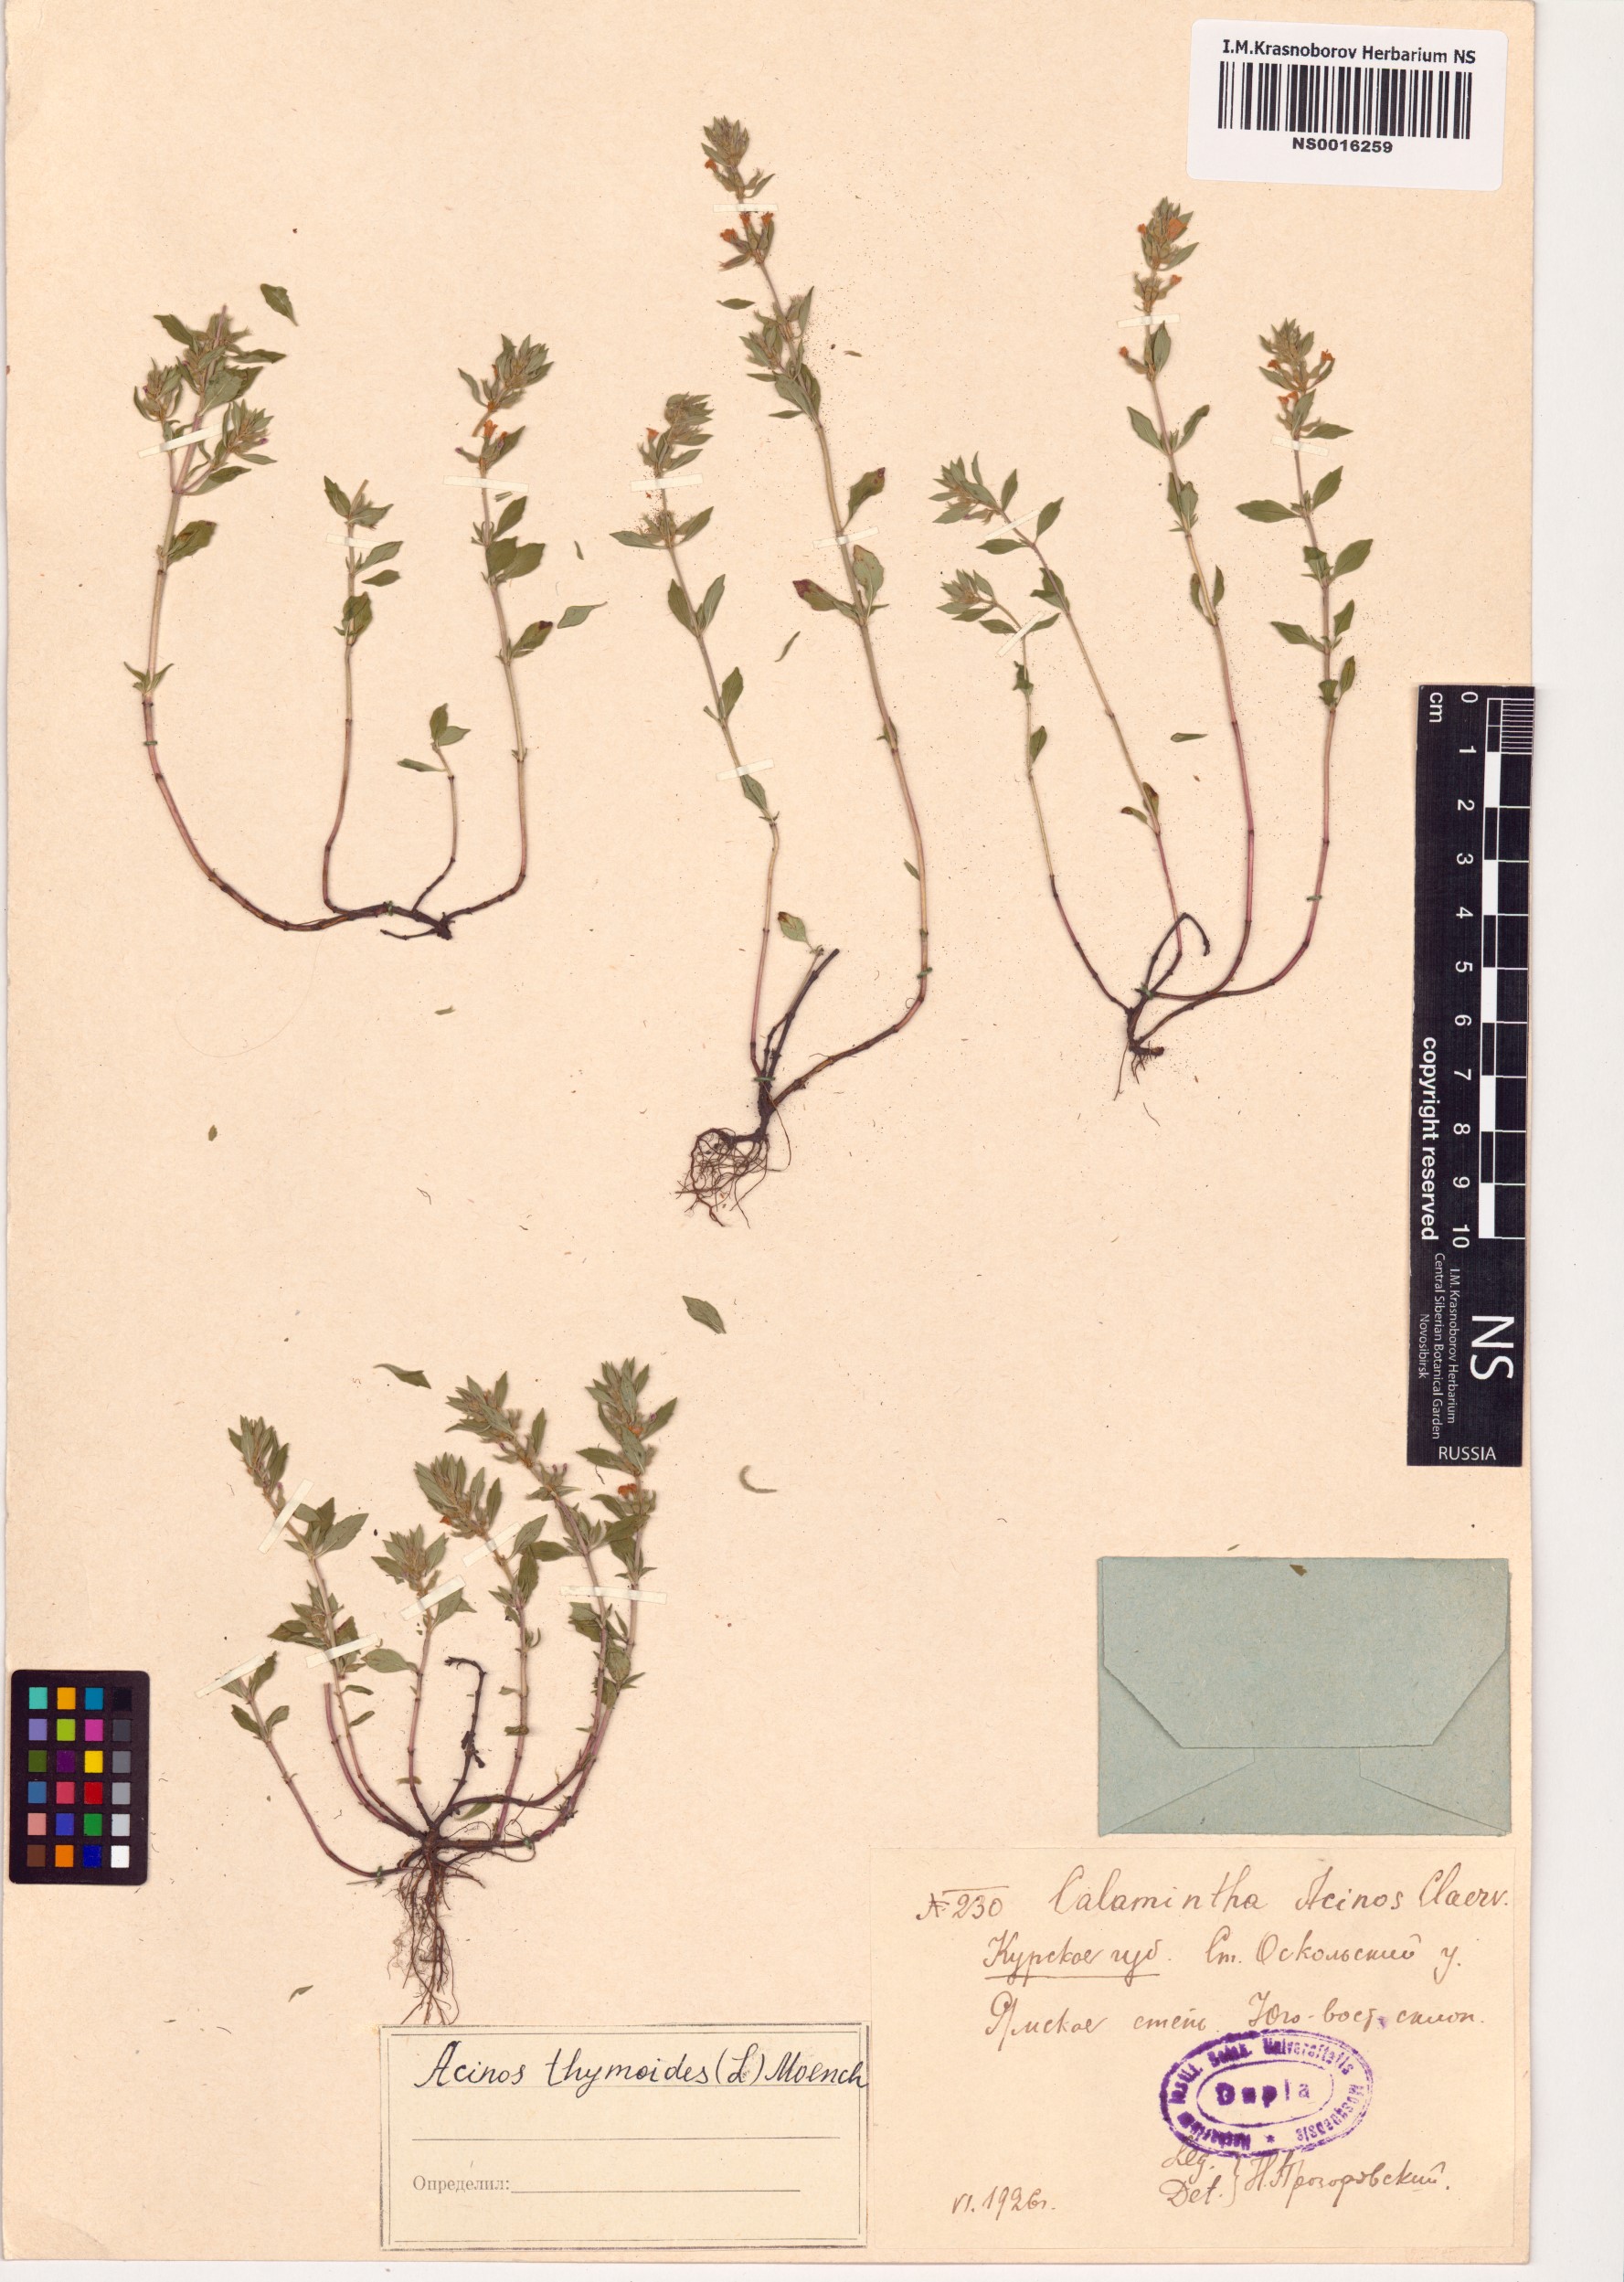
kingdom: Plantae
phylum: Tracheophyta
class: Magnoliopsida
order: Lamiales
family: Lamiaceae
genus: Clinopodium
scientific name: Clinopodium acinos
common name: Basil thyme
